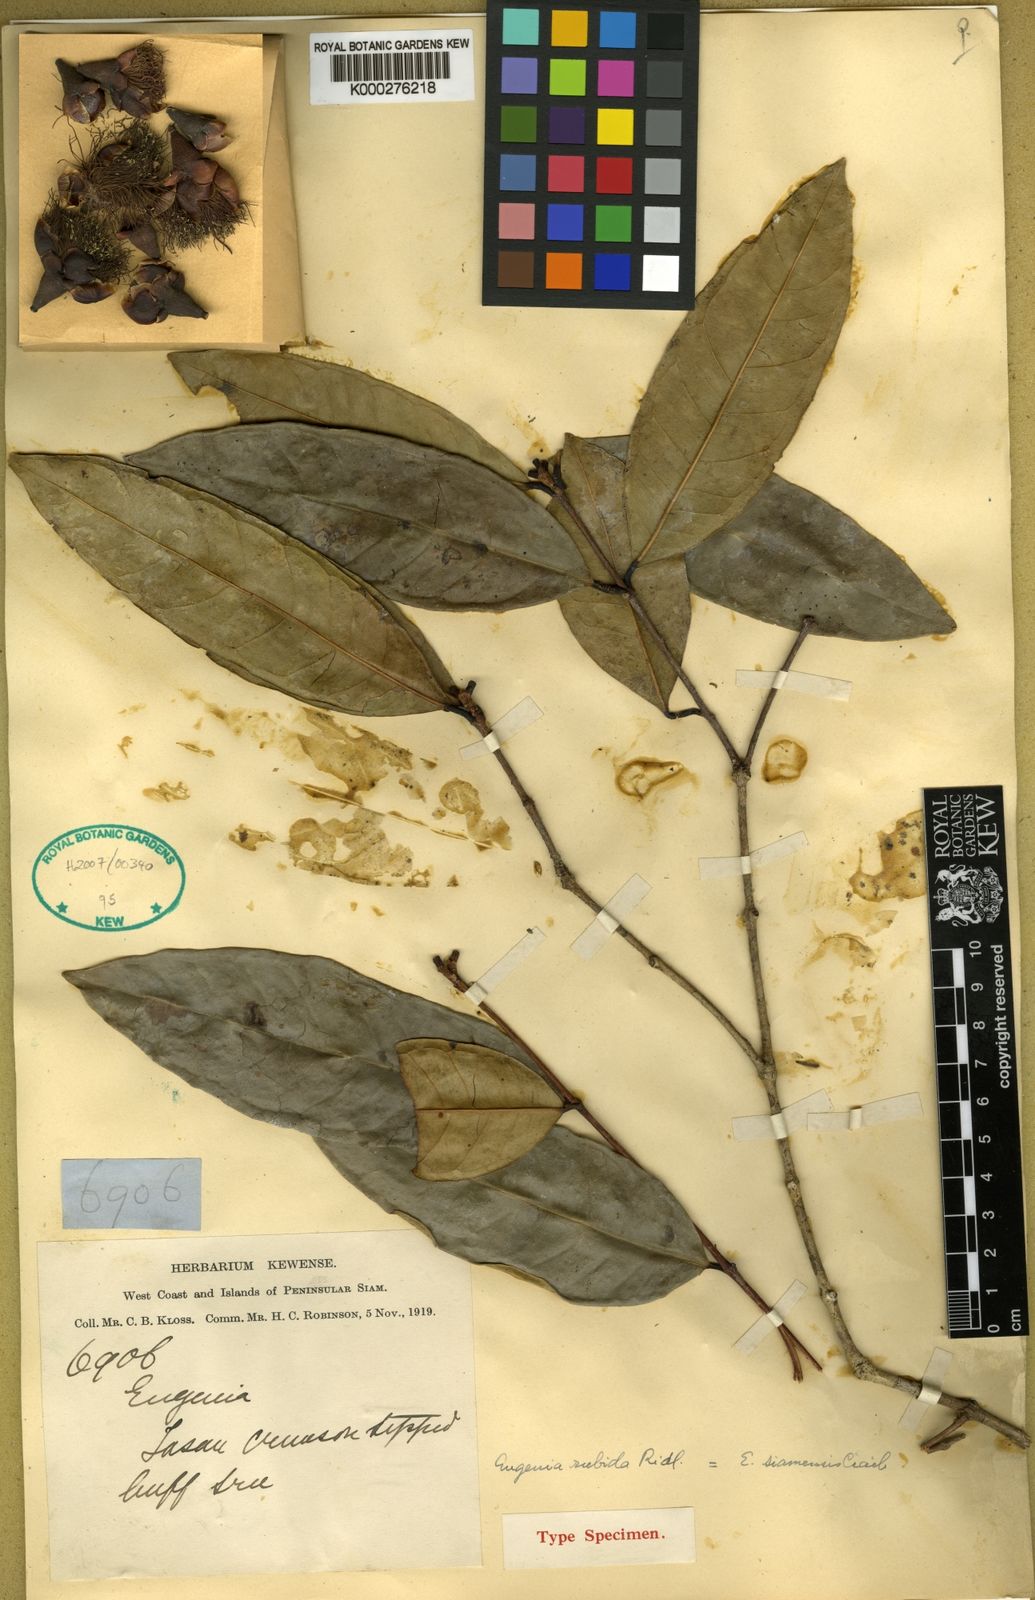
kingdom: Plantae
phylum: Tracheophyta
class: Magnoliopsida
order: Myrtales
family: Myrtaceae
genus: Syzygium
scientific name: Syzygium siamense
